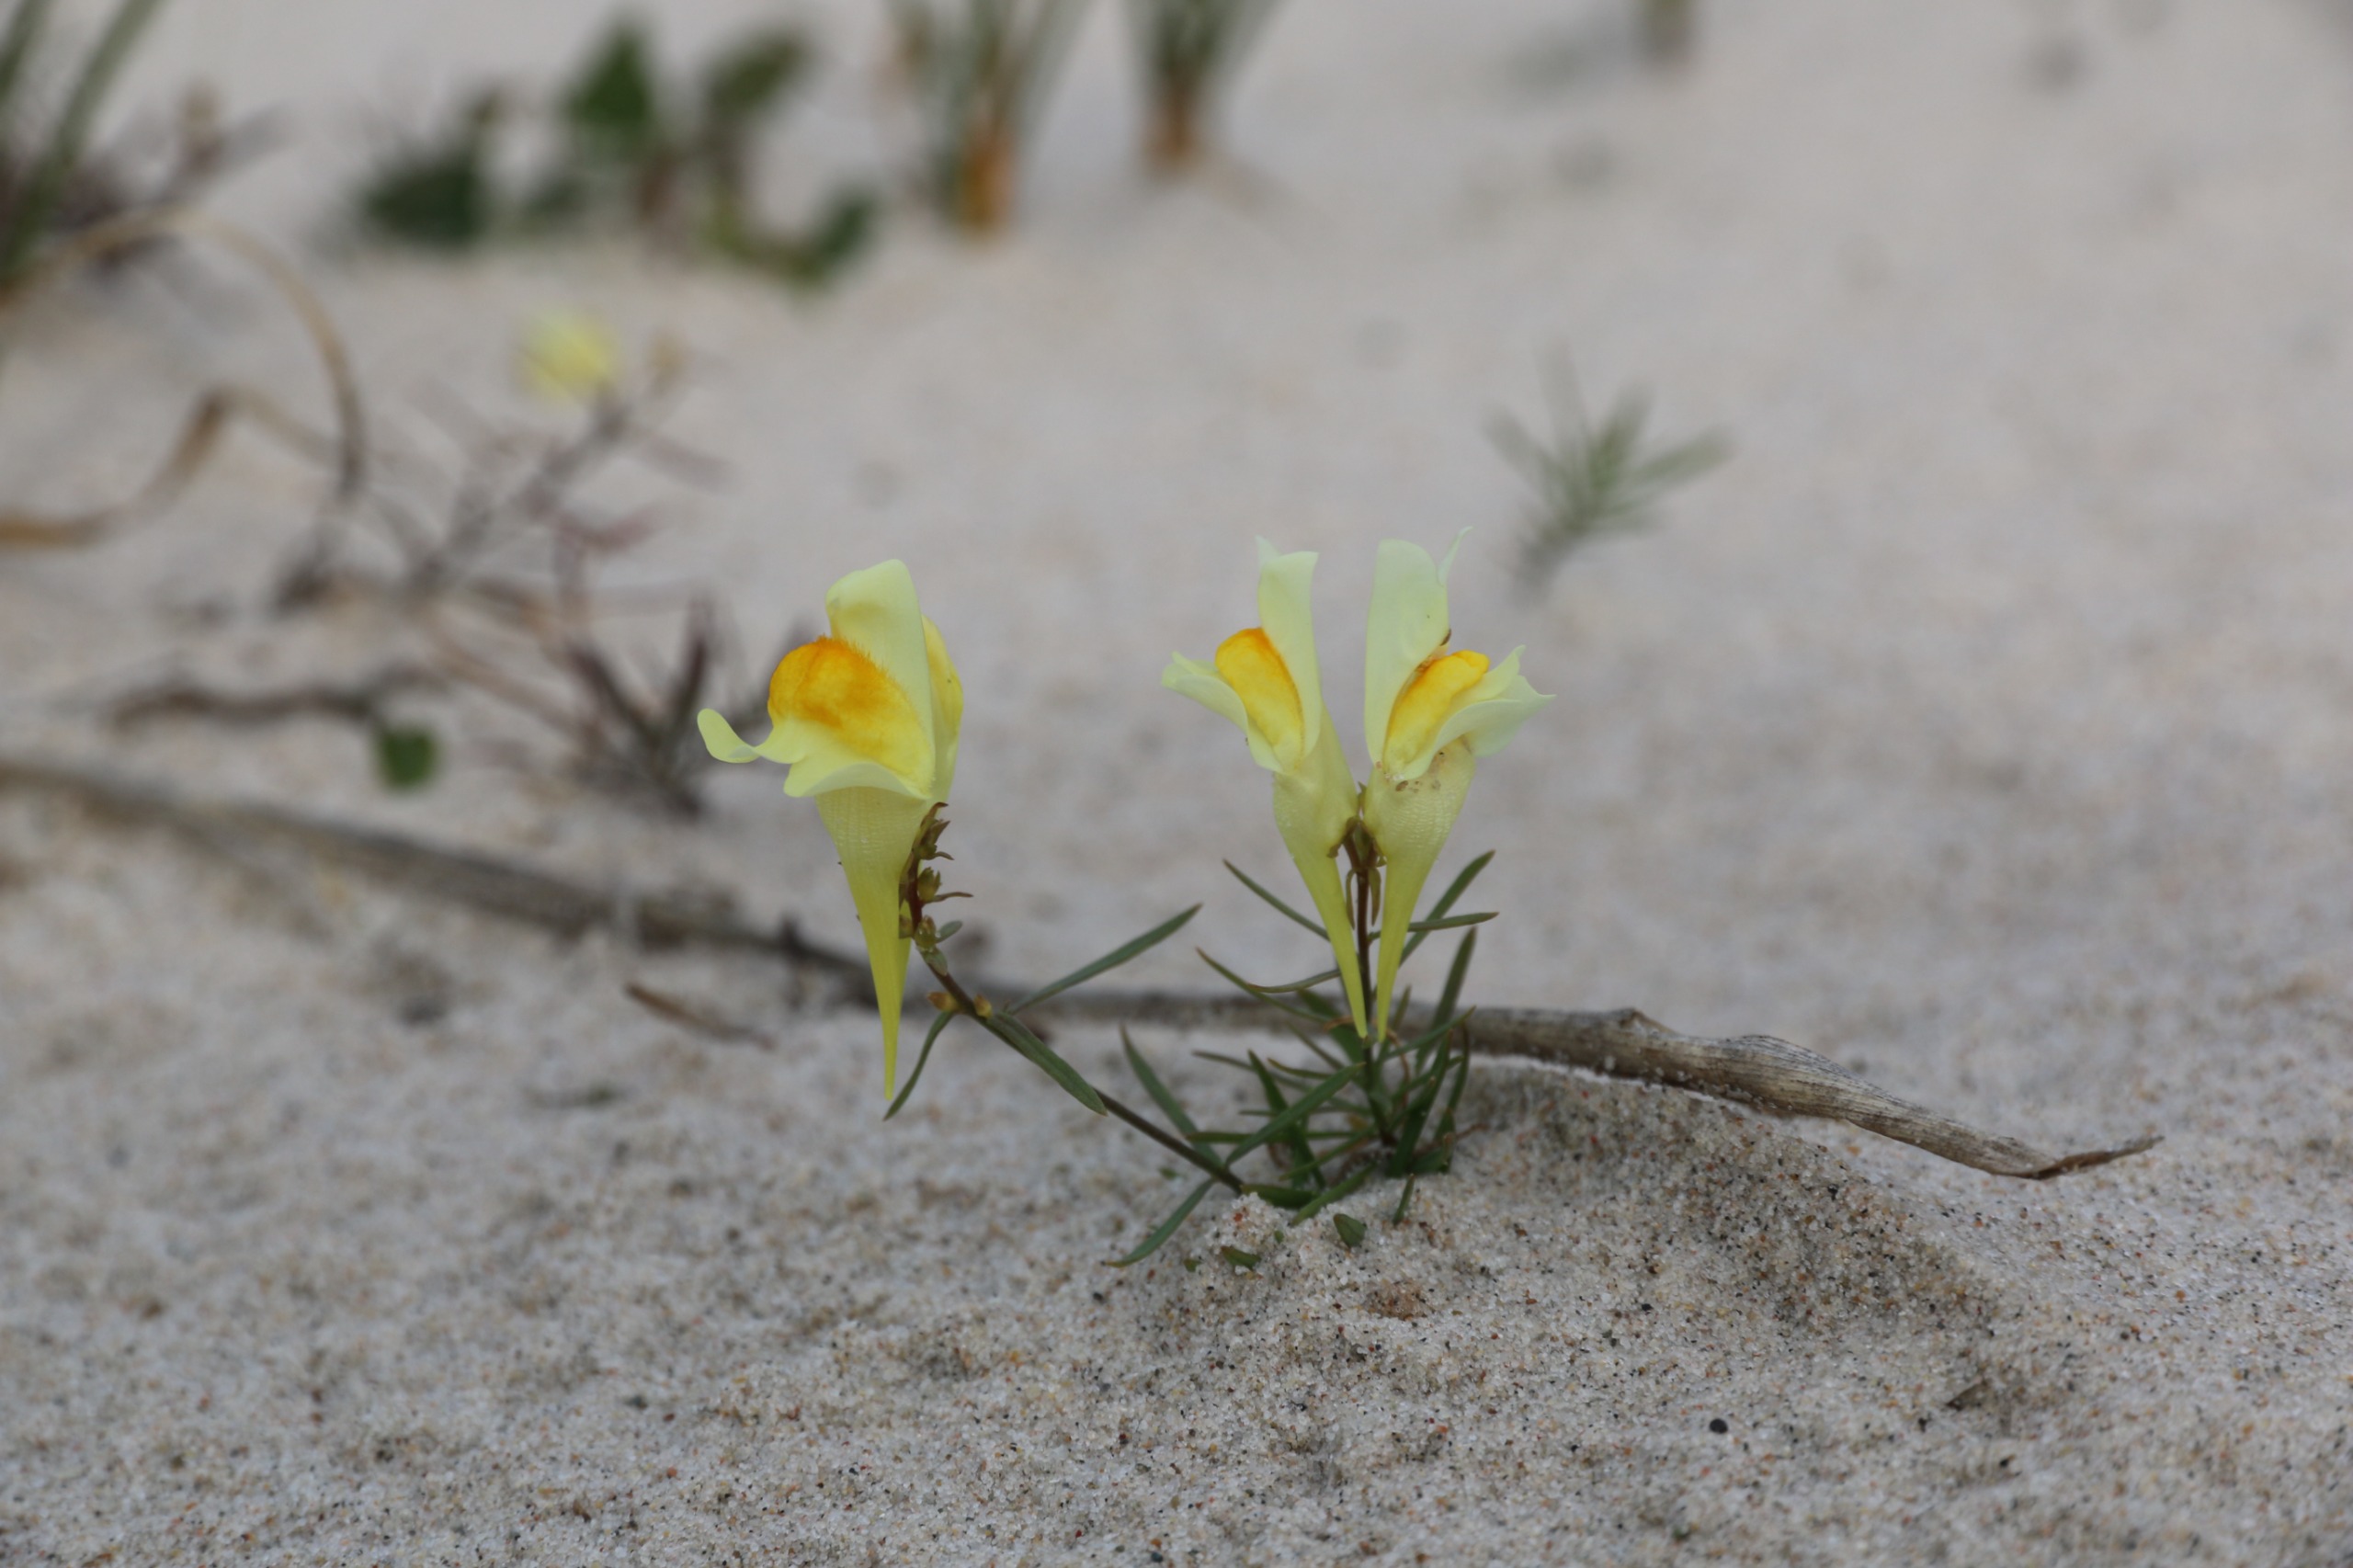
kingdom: Plantae
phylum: Tracheophyta
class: Magnoliopsida
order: Lamiales
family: Plantaginaceae
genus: Linaria
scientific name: Linaria vulgaris
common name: Almindelig torskemund
